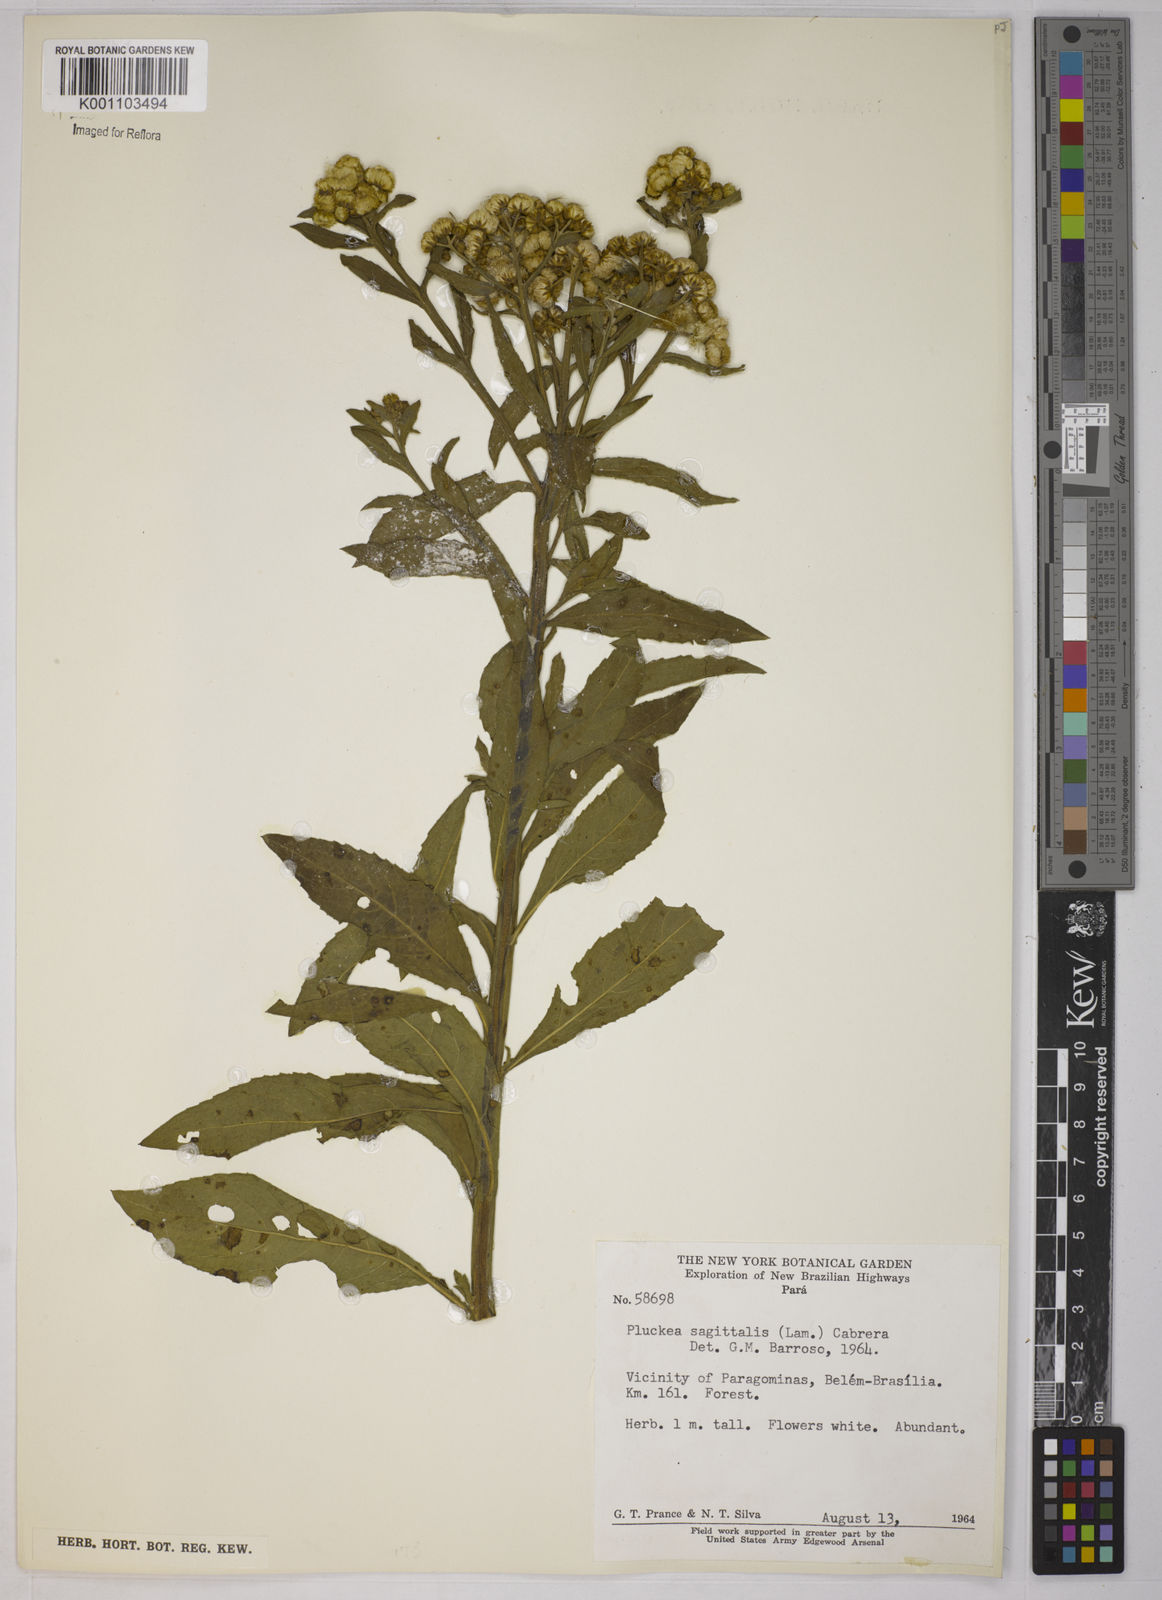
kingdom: Plantae
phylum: Tracheophyta
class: Magnoliopsida
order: Asterales
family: Asteraceae
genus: Pluchea
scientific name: Pluchea sagittalis
